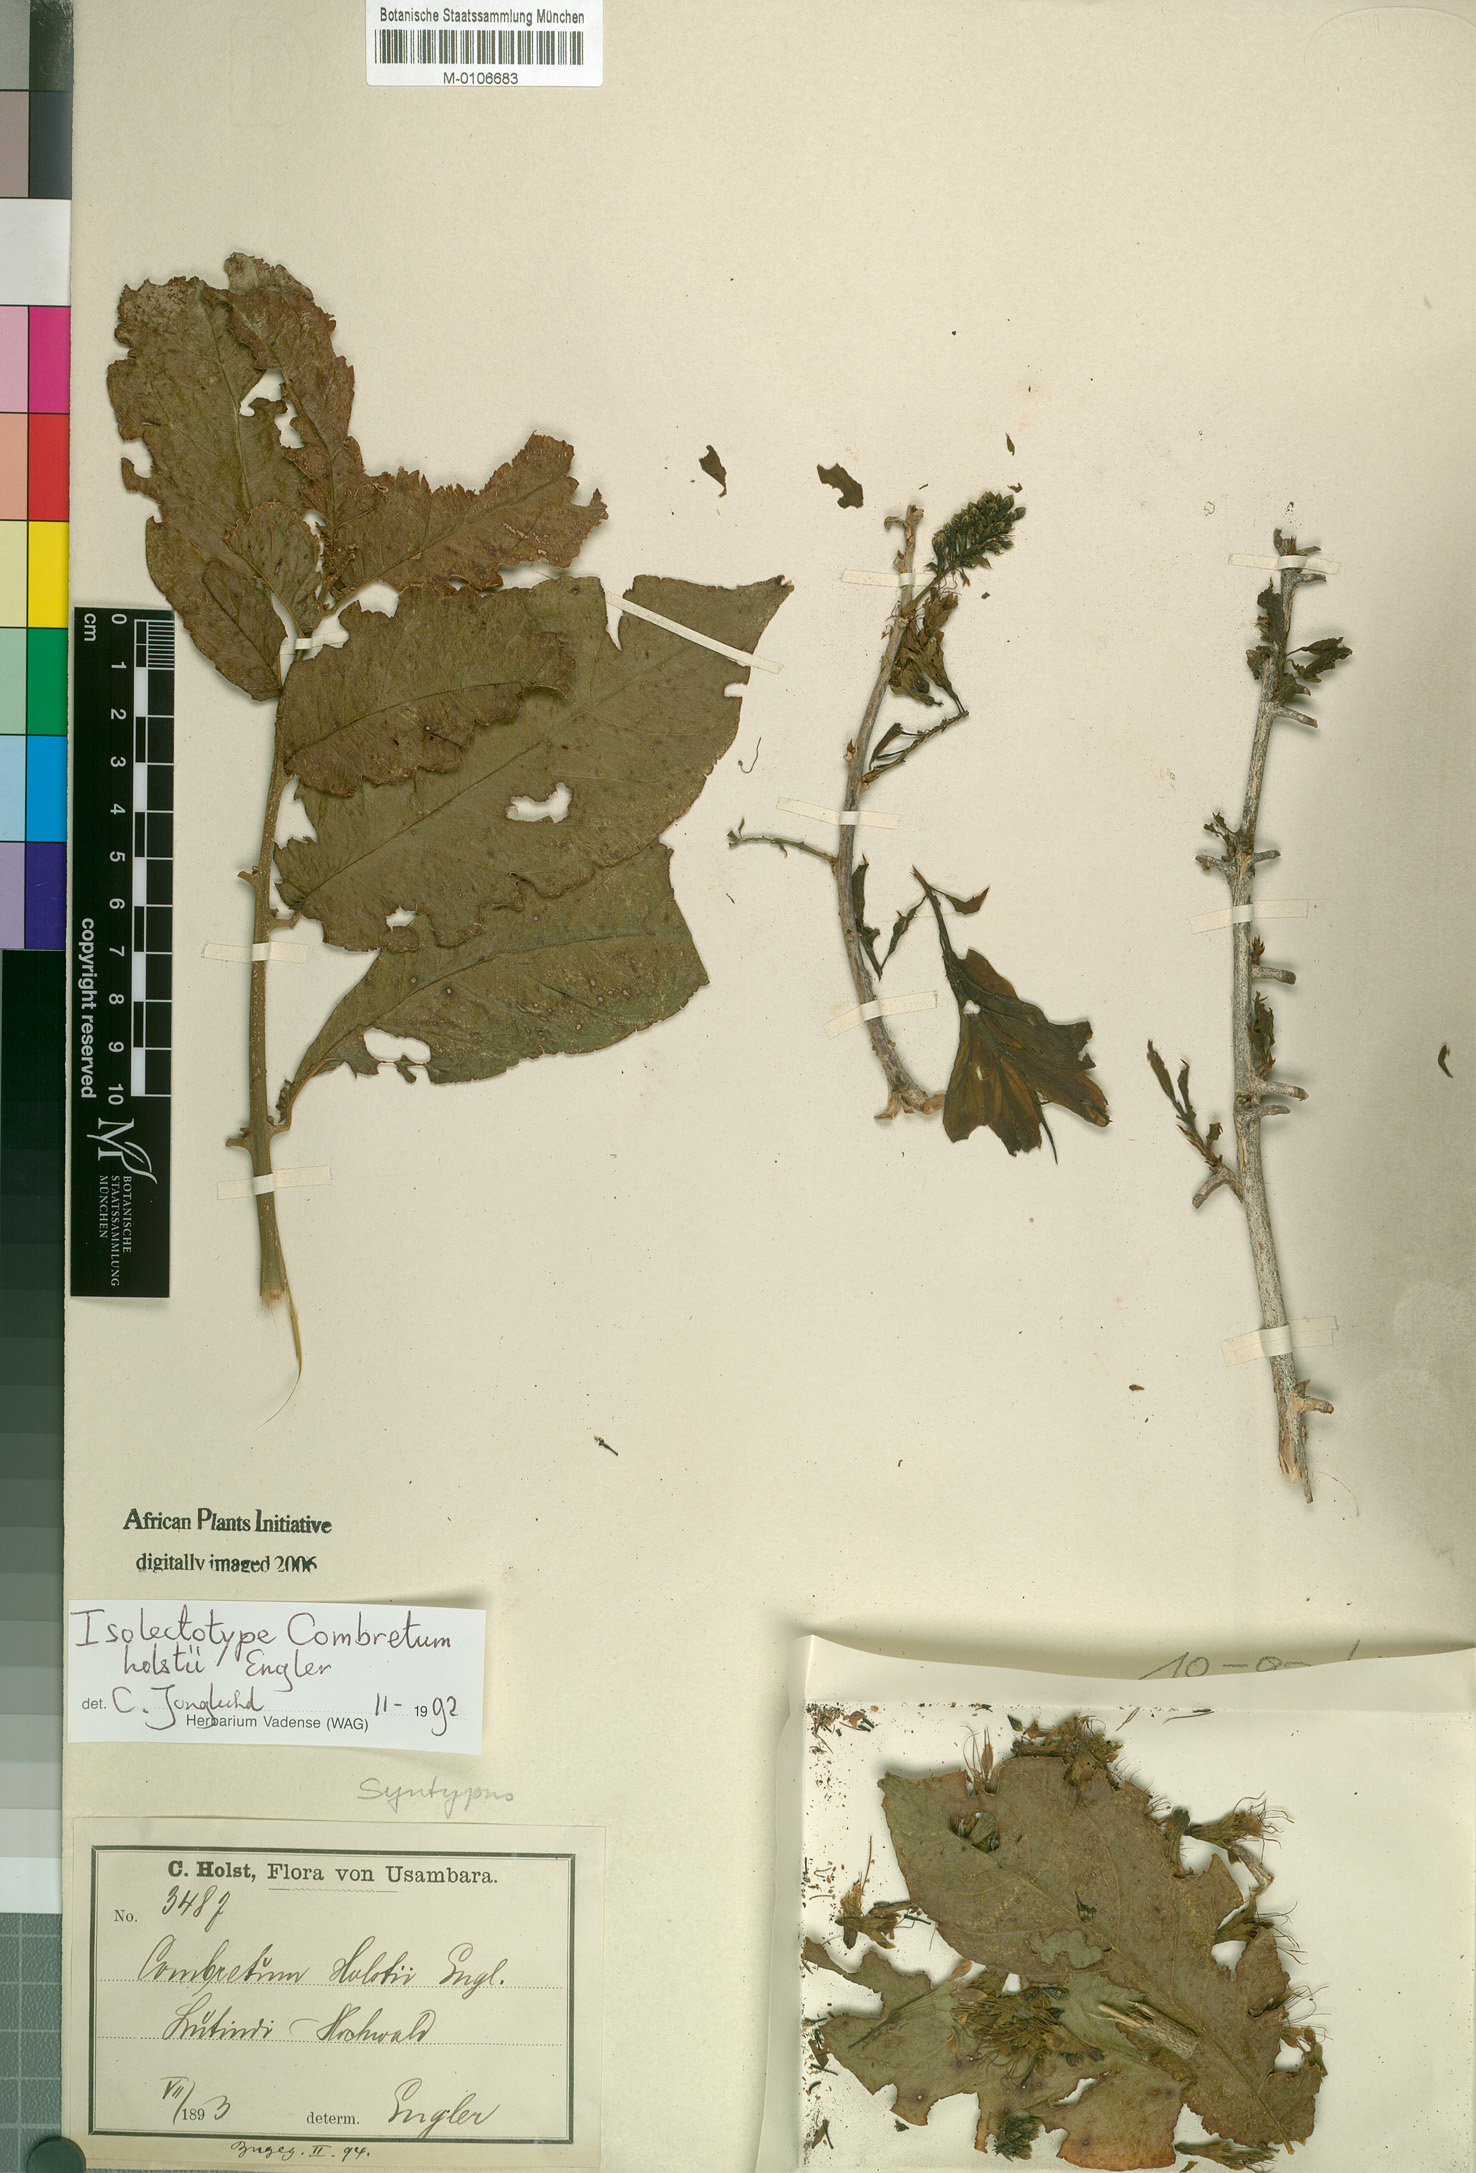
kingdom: Plantae
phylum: Tracheophyta
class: Magnoliopsida
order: Myrtales
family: Combretaceae
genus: Combretum
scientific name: Combretum holstii
